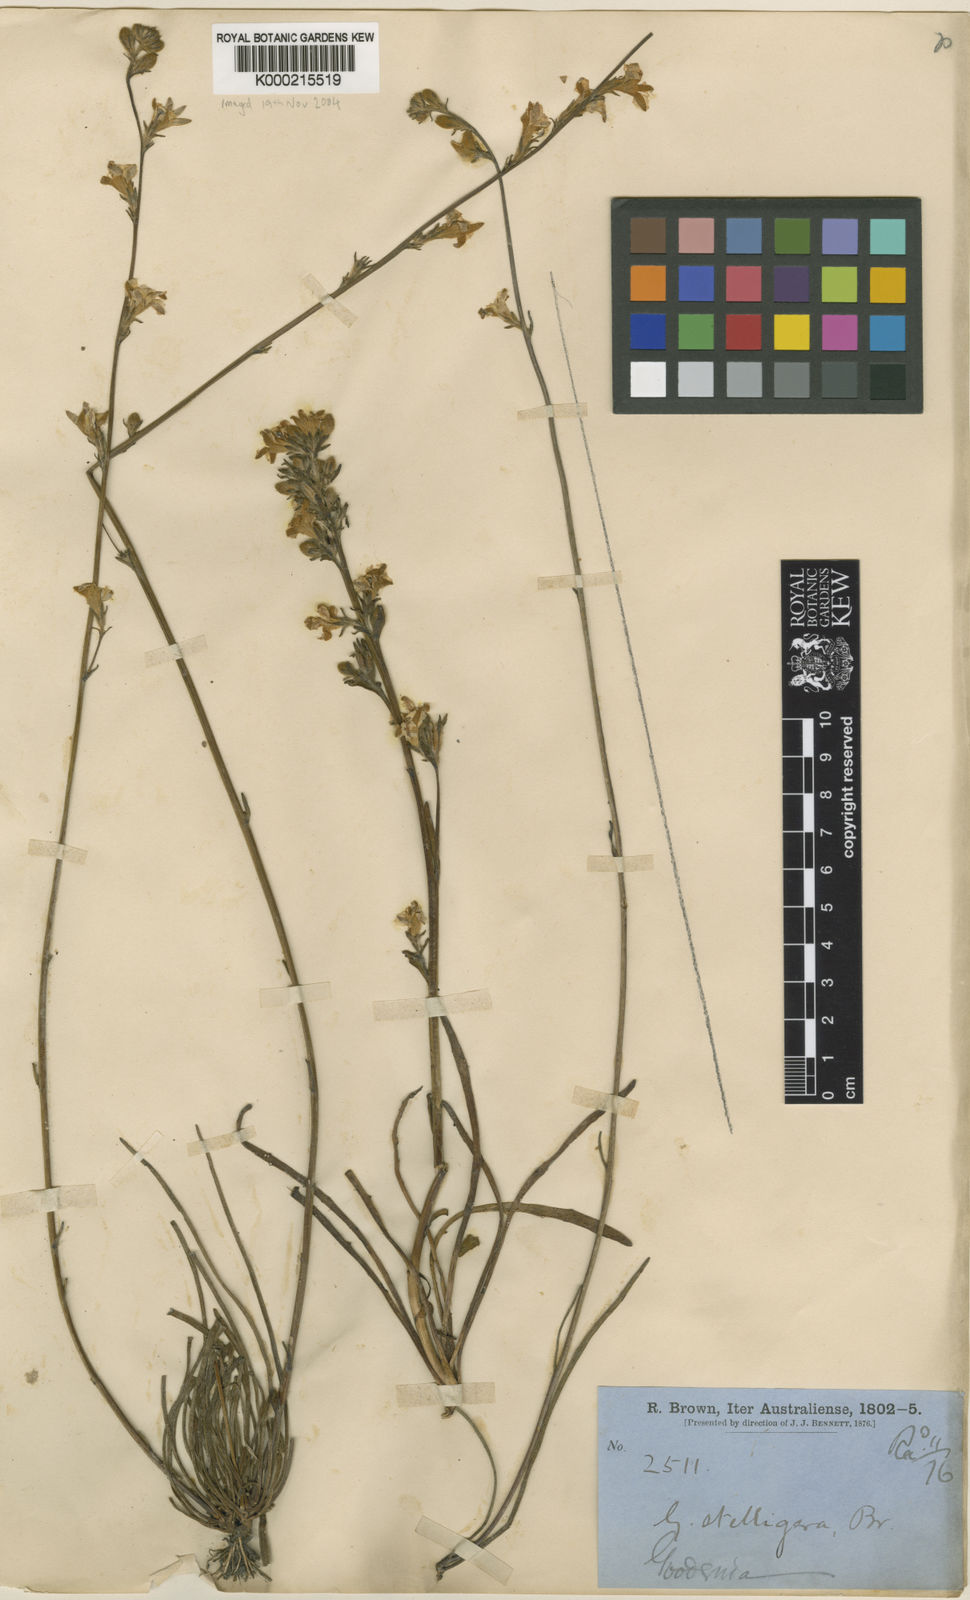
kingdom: Plantae
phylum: Tracheophyta
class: Magnoliopsida
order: Asterales
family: Goodeniaceae
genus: Goodenia
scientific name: Goodenia stelligera
